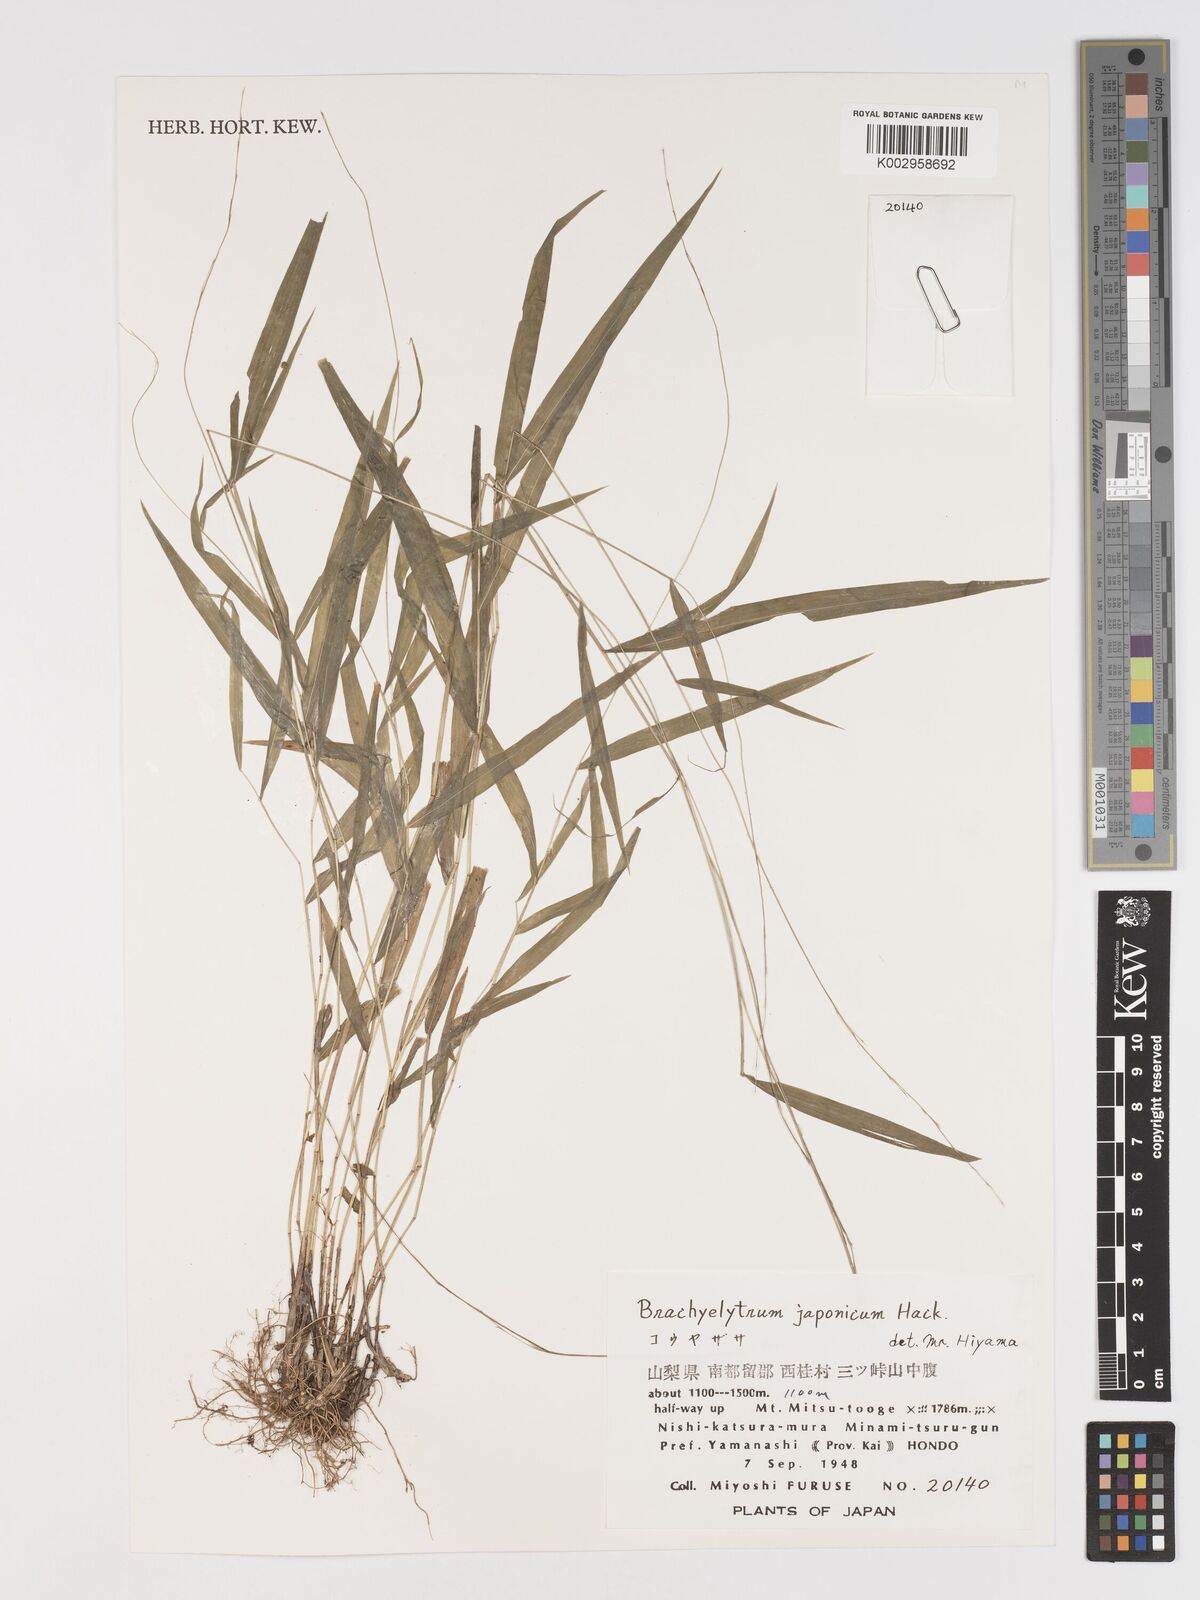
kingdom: Plantae
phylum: Tracheophyta
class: Liliopsida
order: Poales
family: Poaceae
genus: Brachyelytrum
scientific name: Brachyelytrum japonicum
